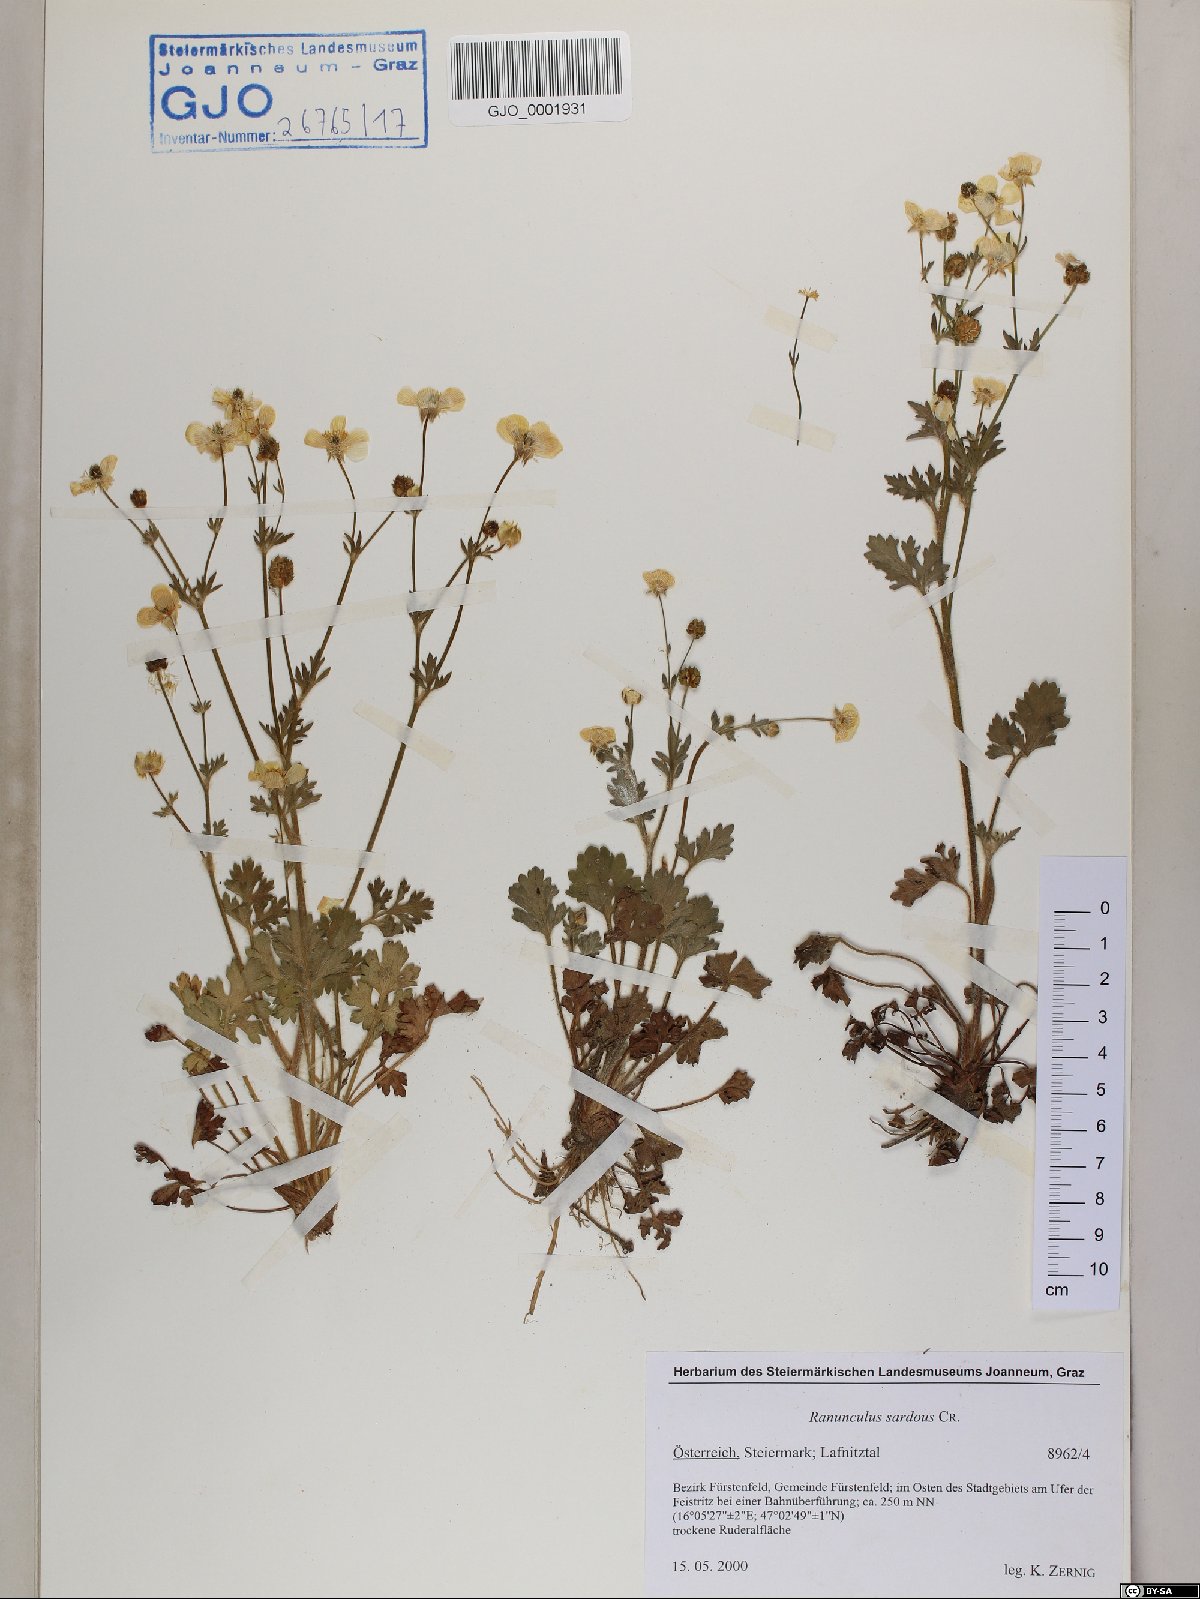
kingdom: Plantae
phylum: Tracheophyta
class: Magnoliopsida
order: Ranunculales
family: Ranunculaceae
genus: Ranunculus
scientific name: Ranunculus sardous
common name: Hairy buttercup
